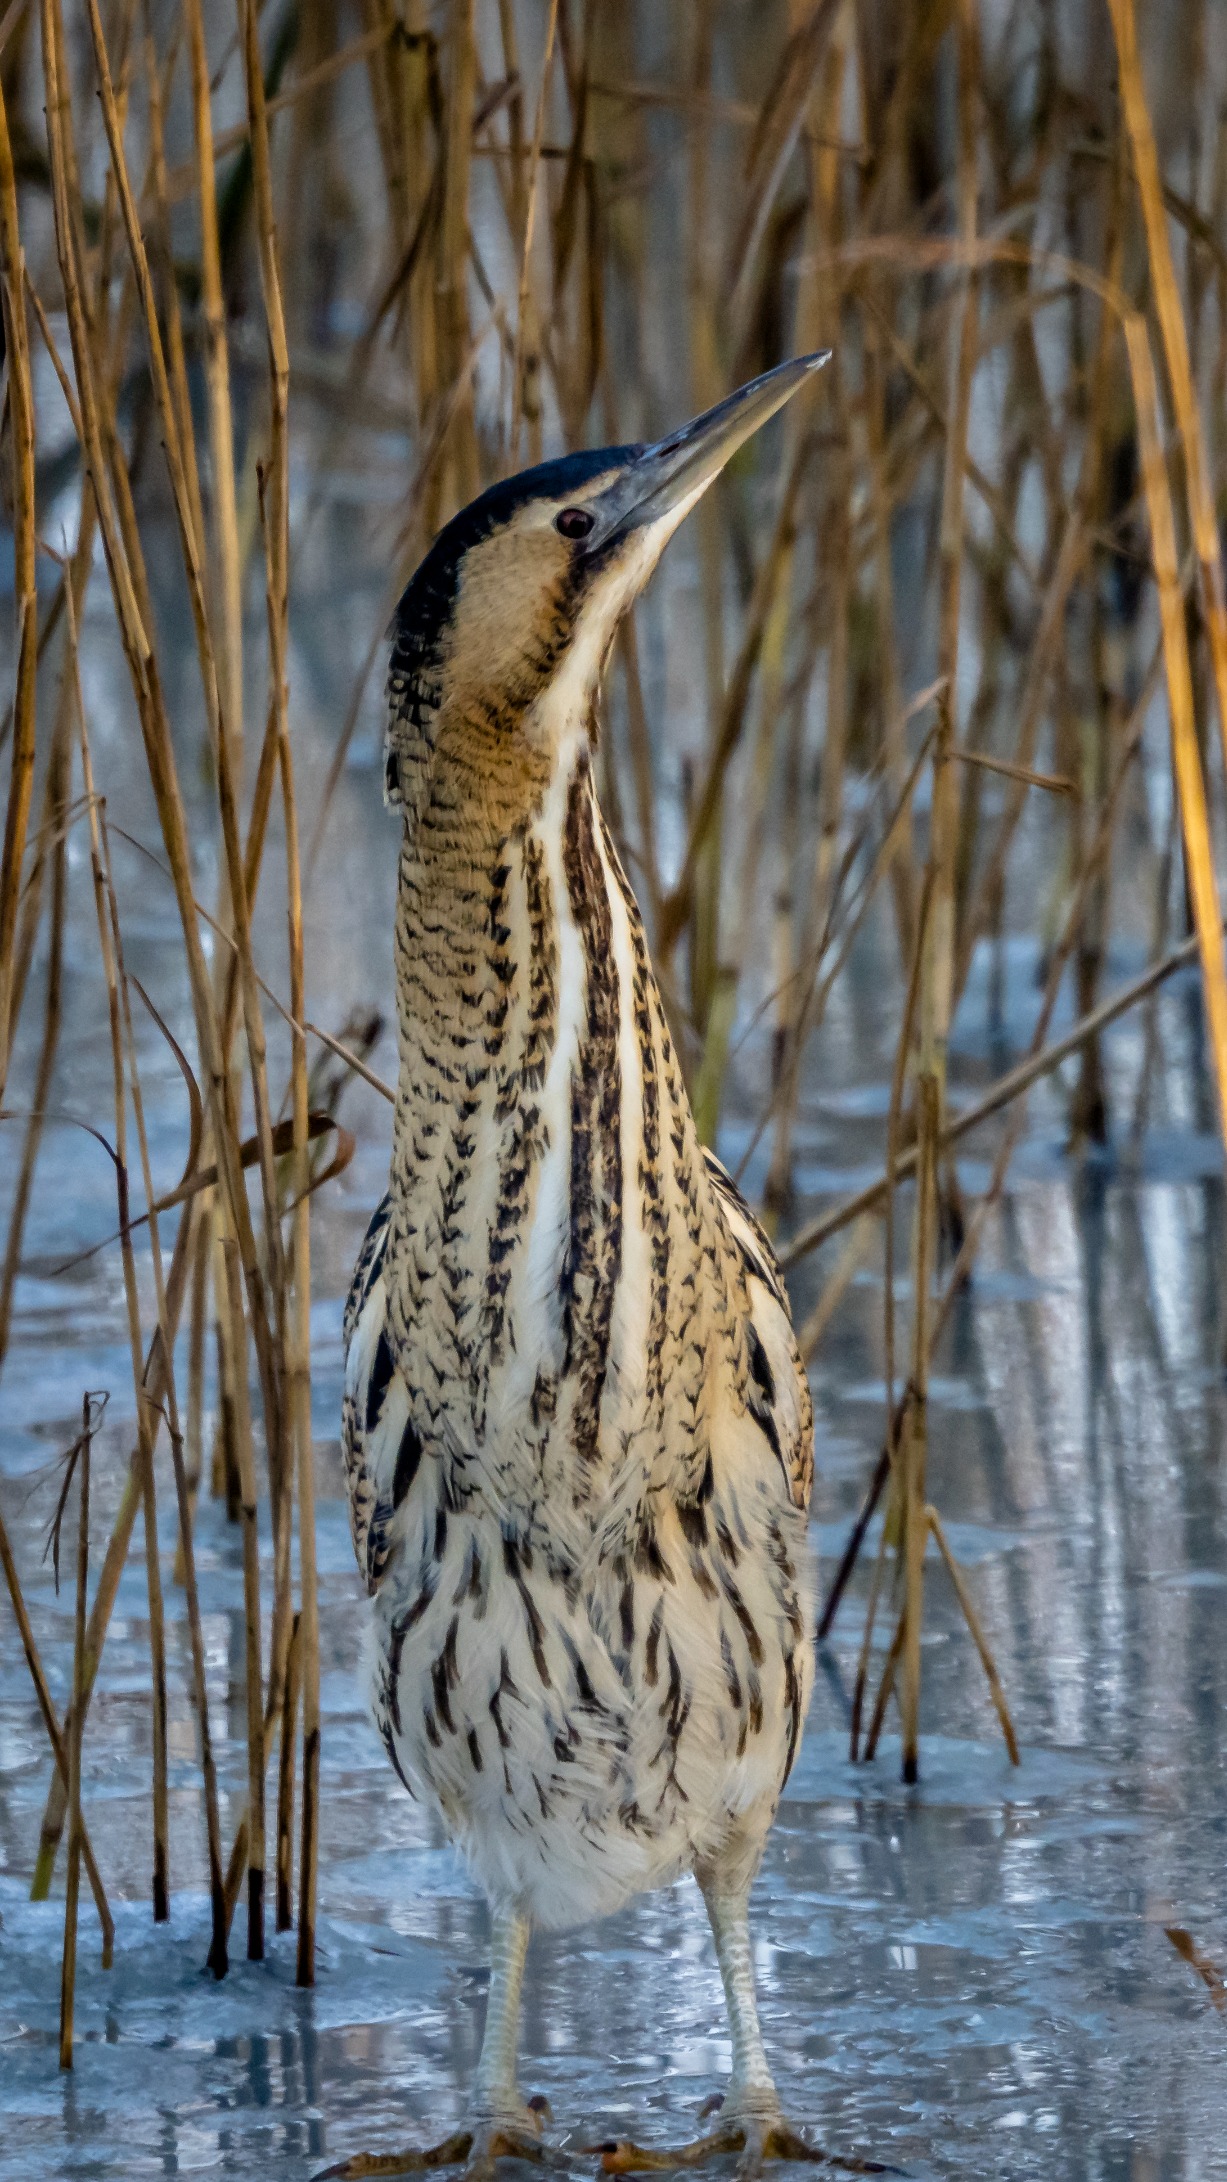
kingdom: Animalia
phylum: Chordata
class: Aves
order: Pelecaniformes
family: Ardeidae
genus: Botaurus
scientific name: Botaurus stellaris
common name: Rørdrum
